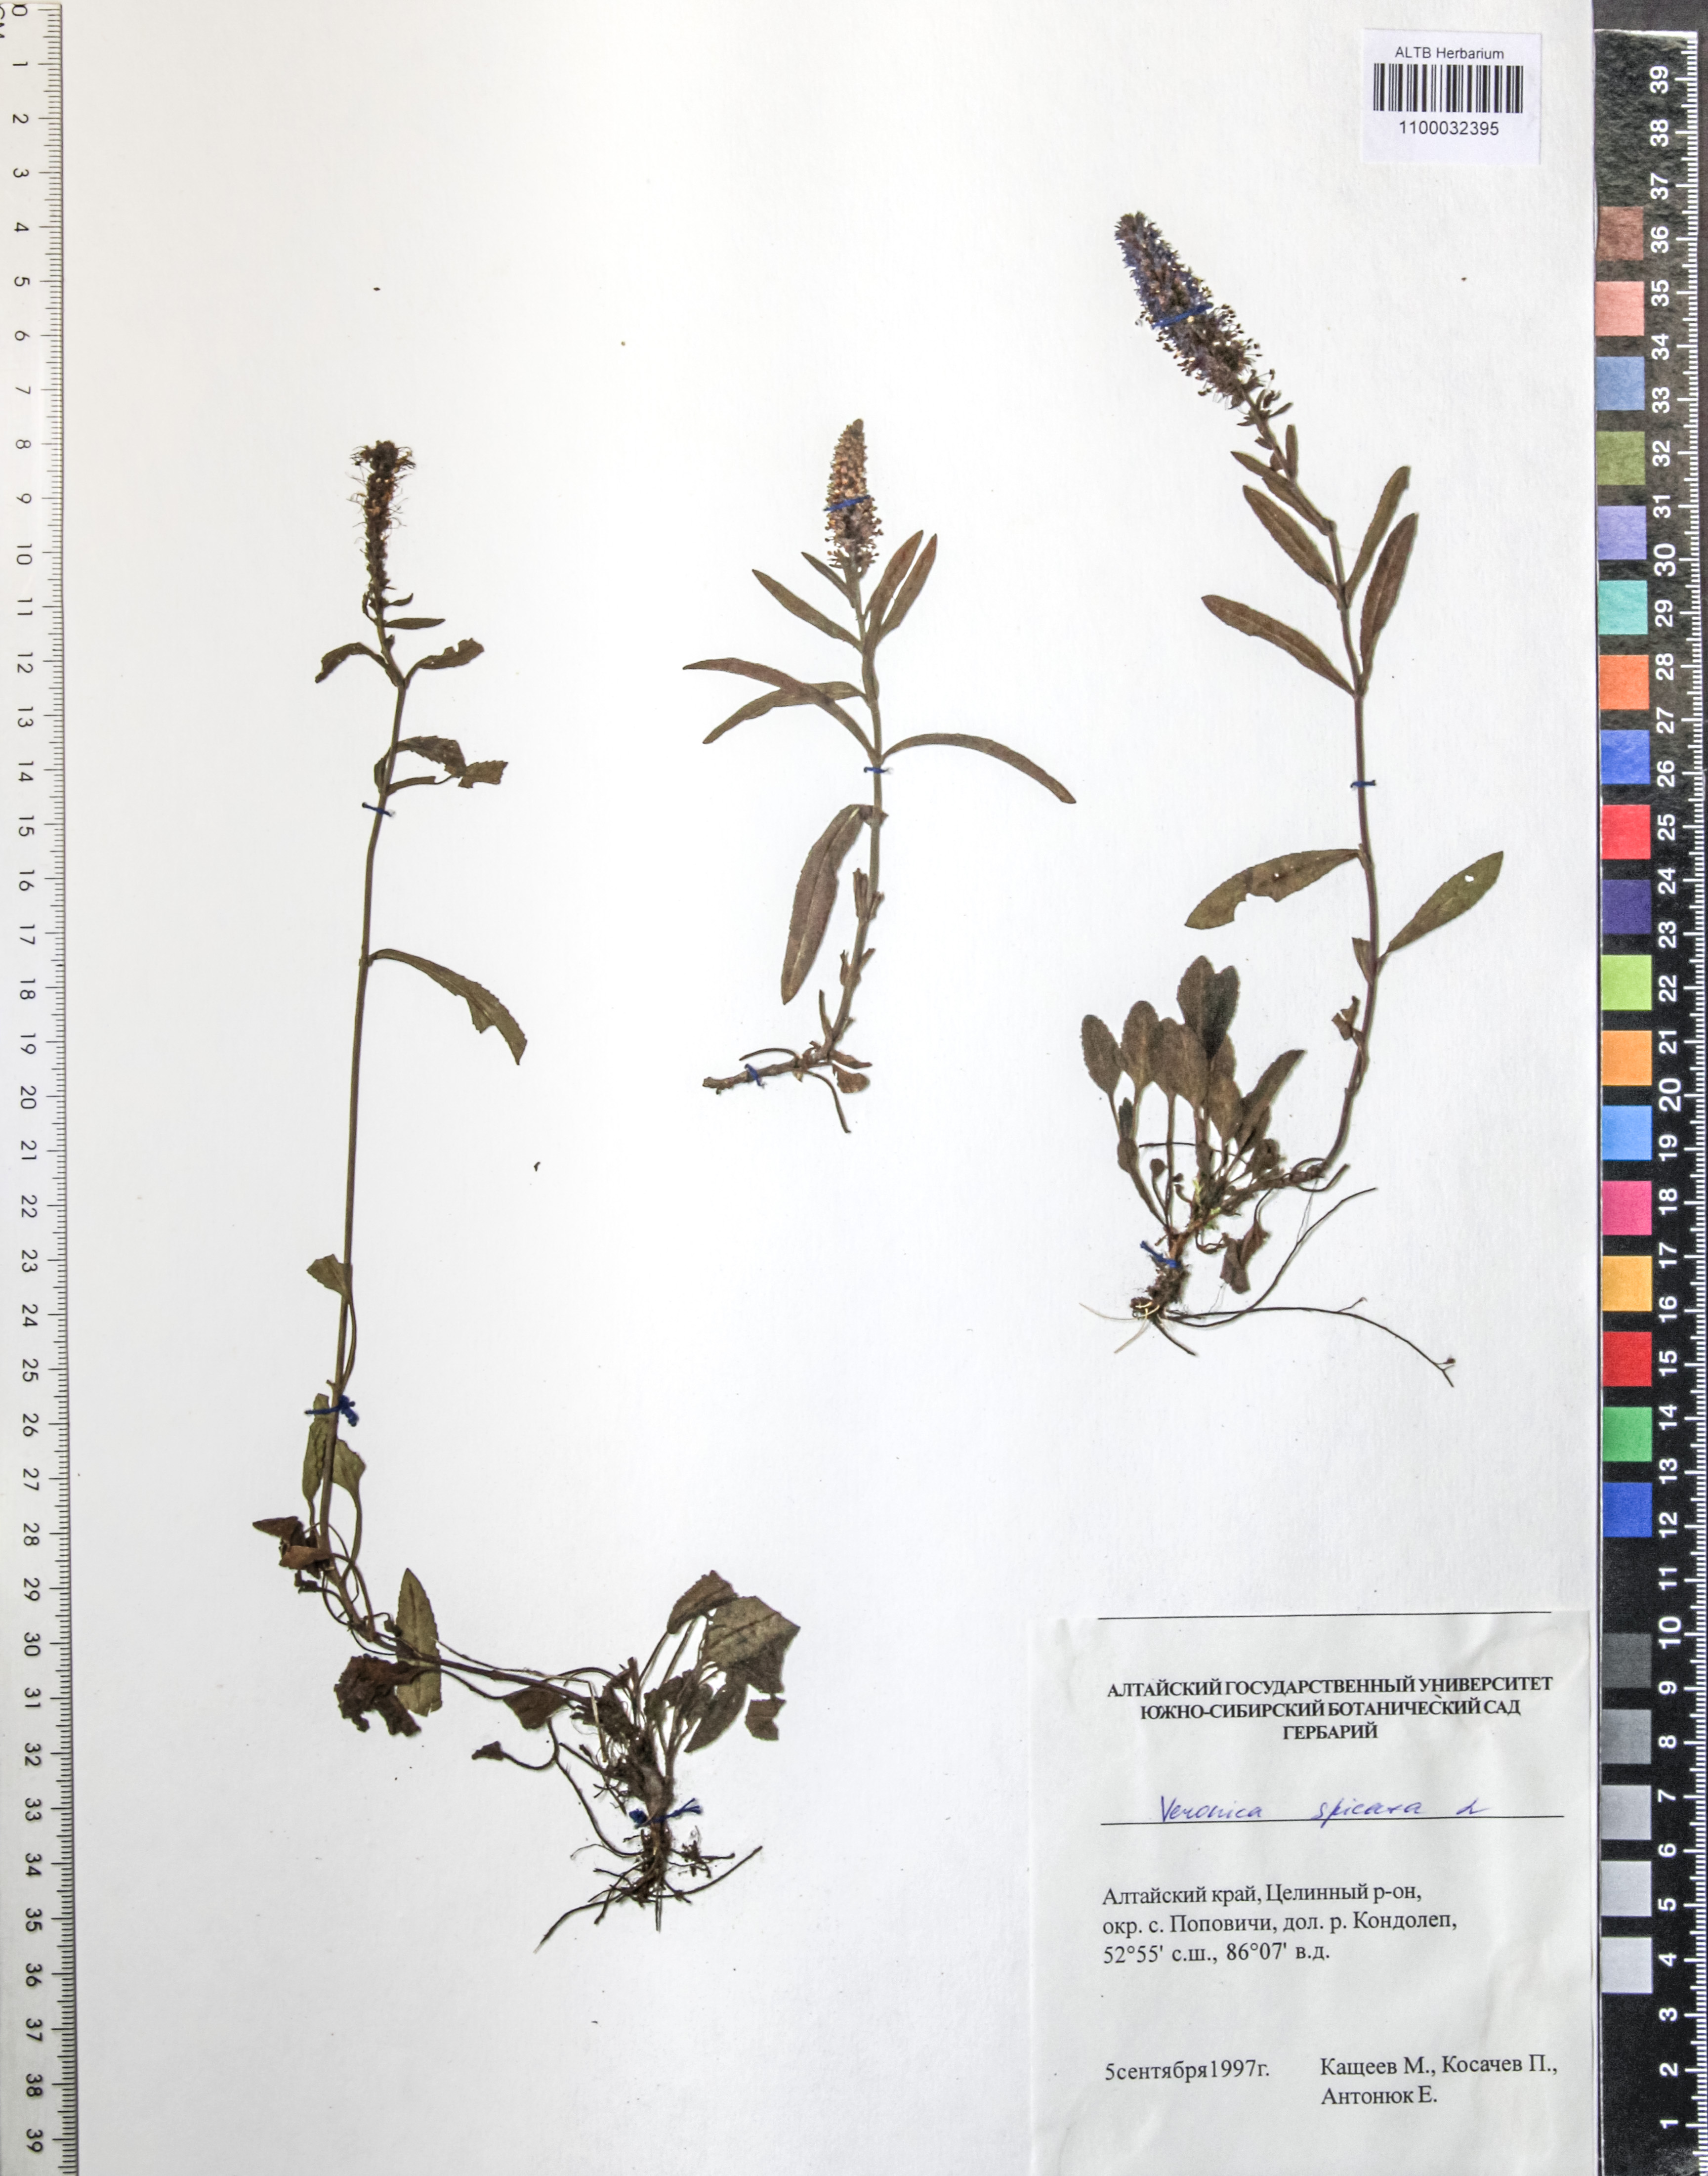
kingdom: Plantae
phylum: Tracheophyta
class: Magnoliopsida
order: Lamiales
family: Plantaginaceae
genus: Veronica
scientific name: Veronica spicata
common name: Spiked speedwell
